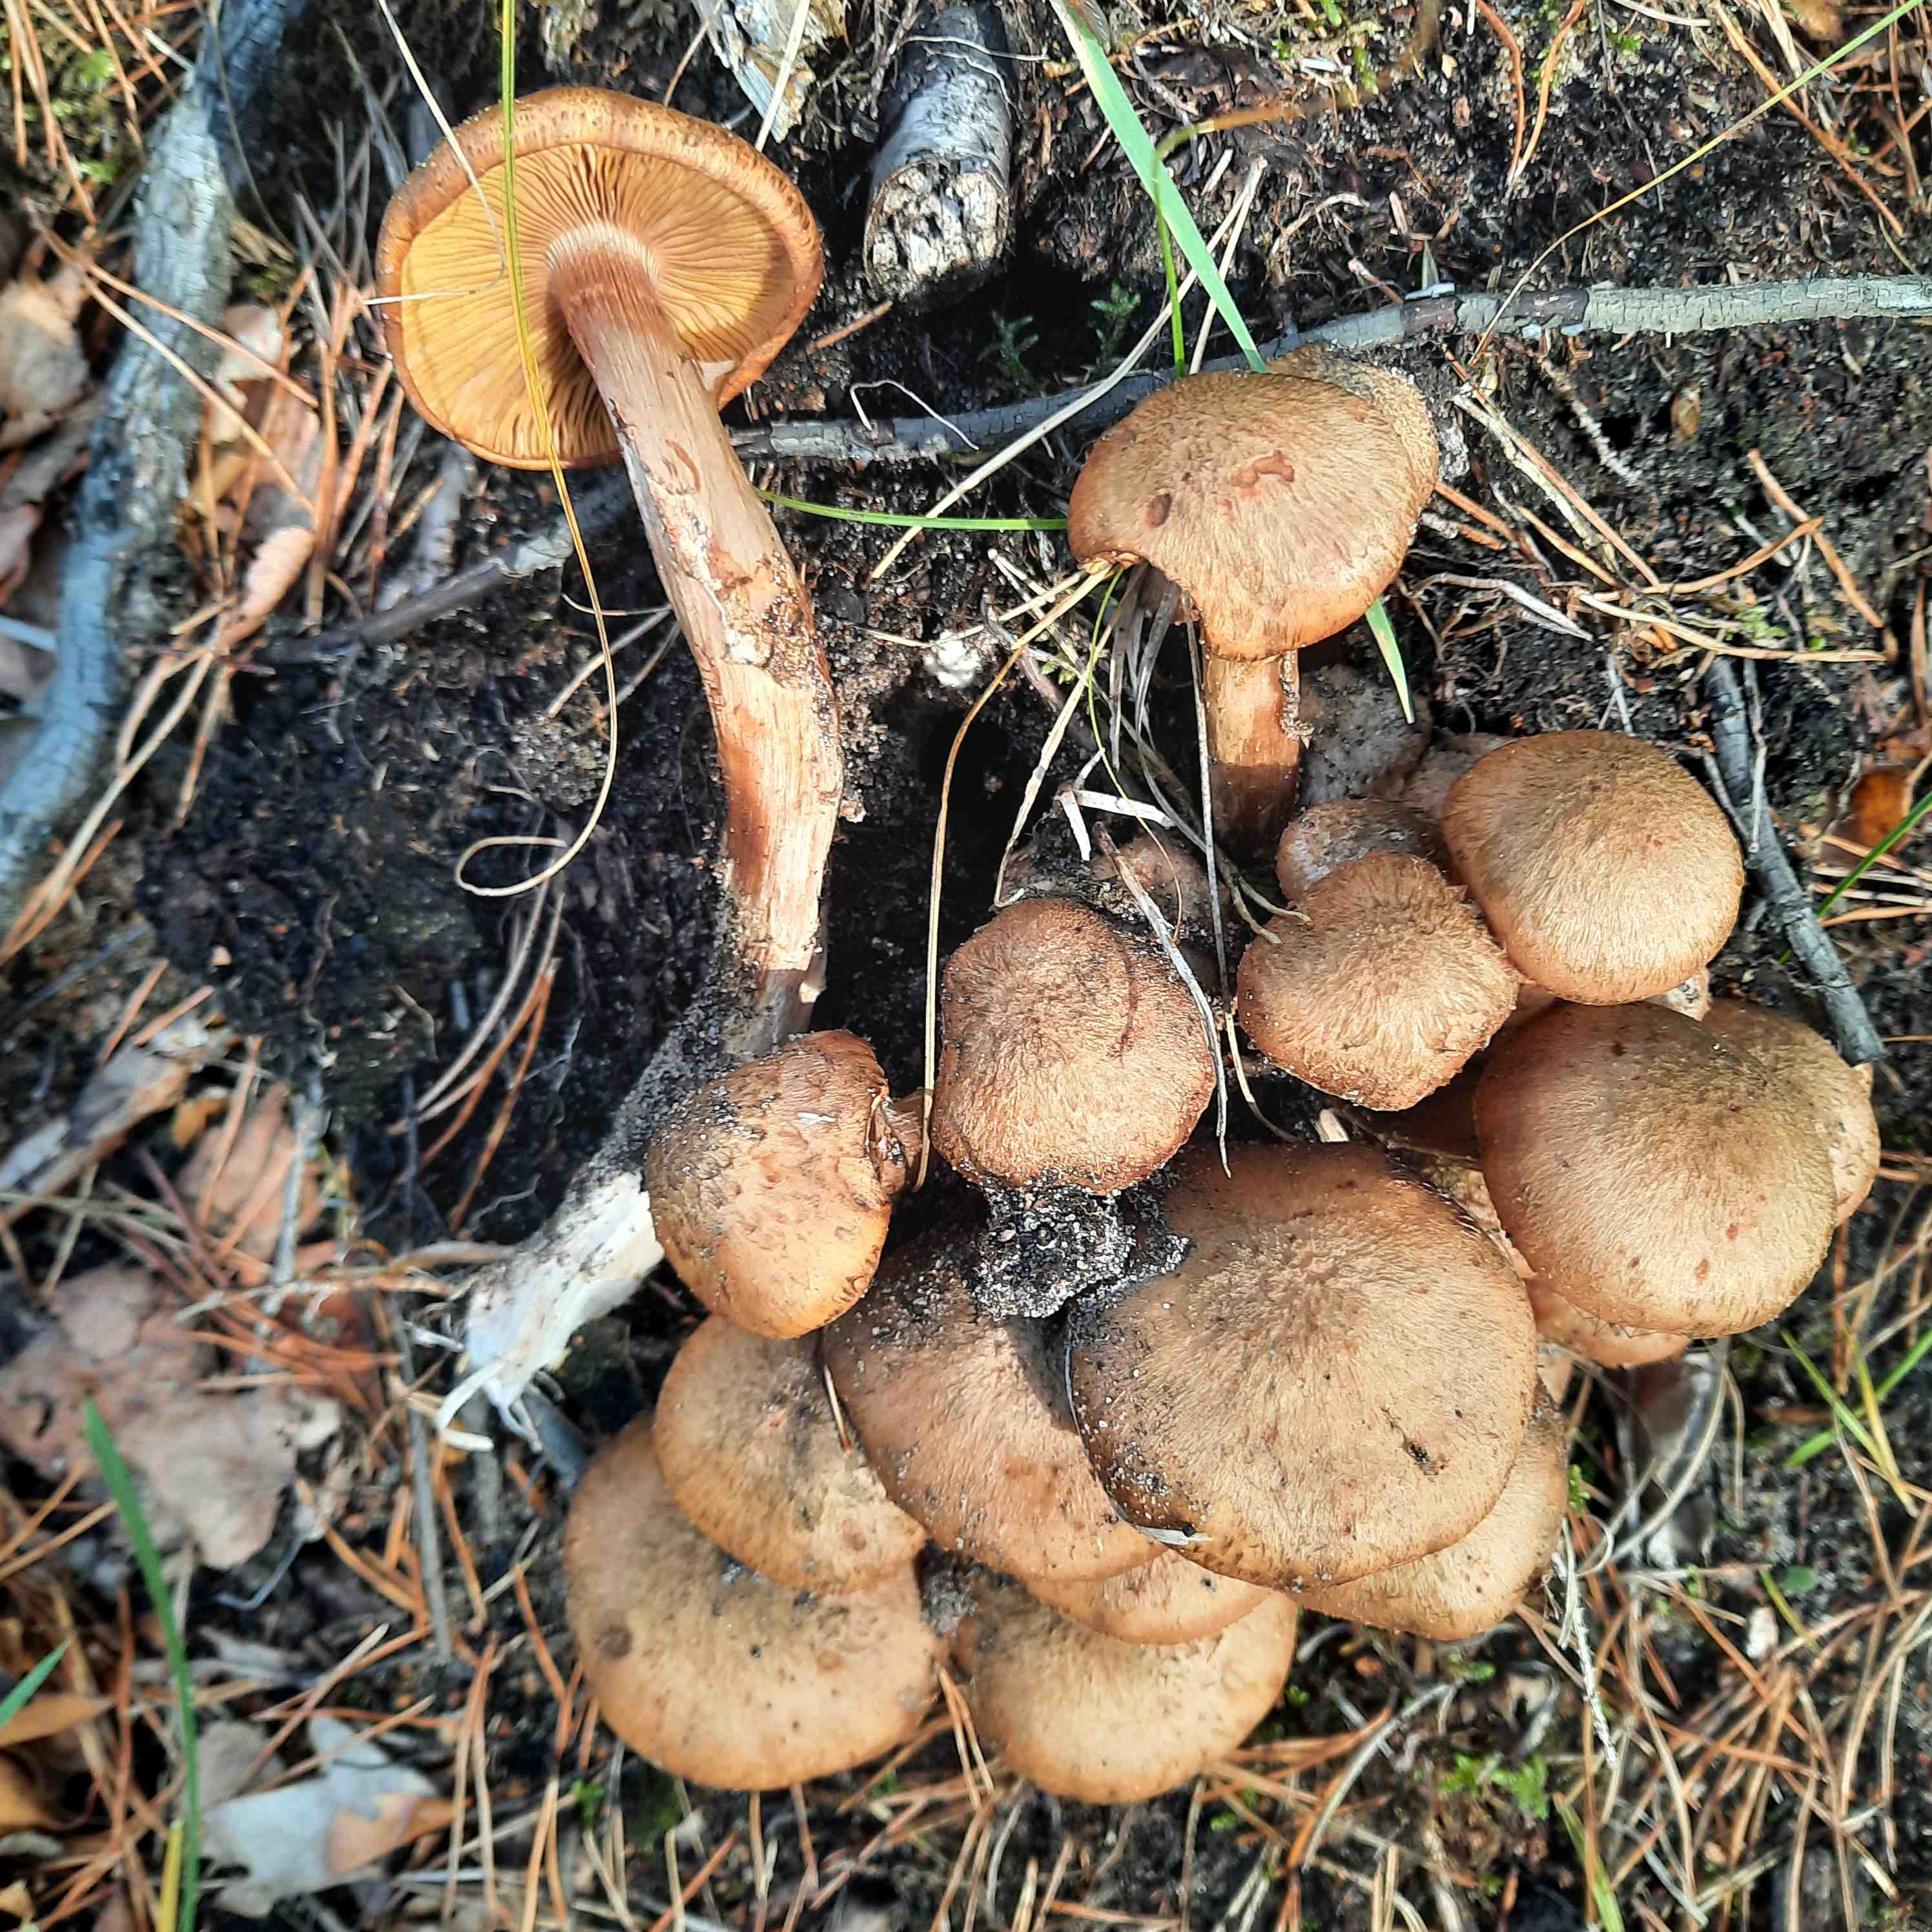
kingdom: Fungi
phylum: Basidiomycota
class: Agaricomycetes
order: Agaricales
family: Physalacriaceae
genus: Armillaria
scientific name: Armillaria ostoyae
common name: mørk honningsvamp
